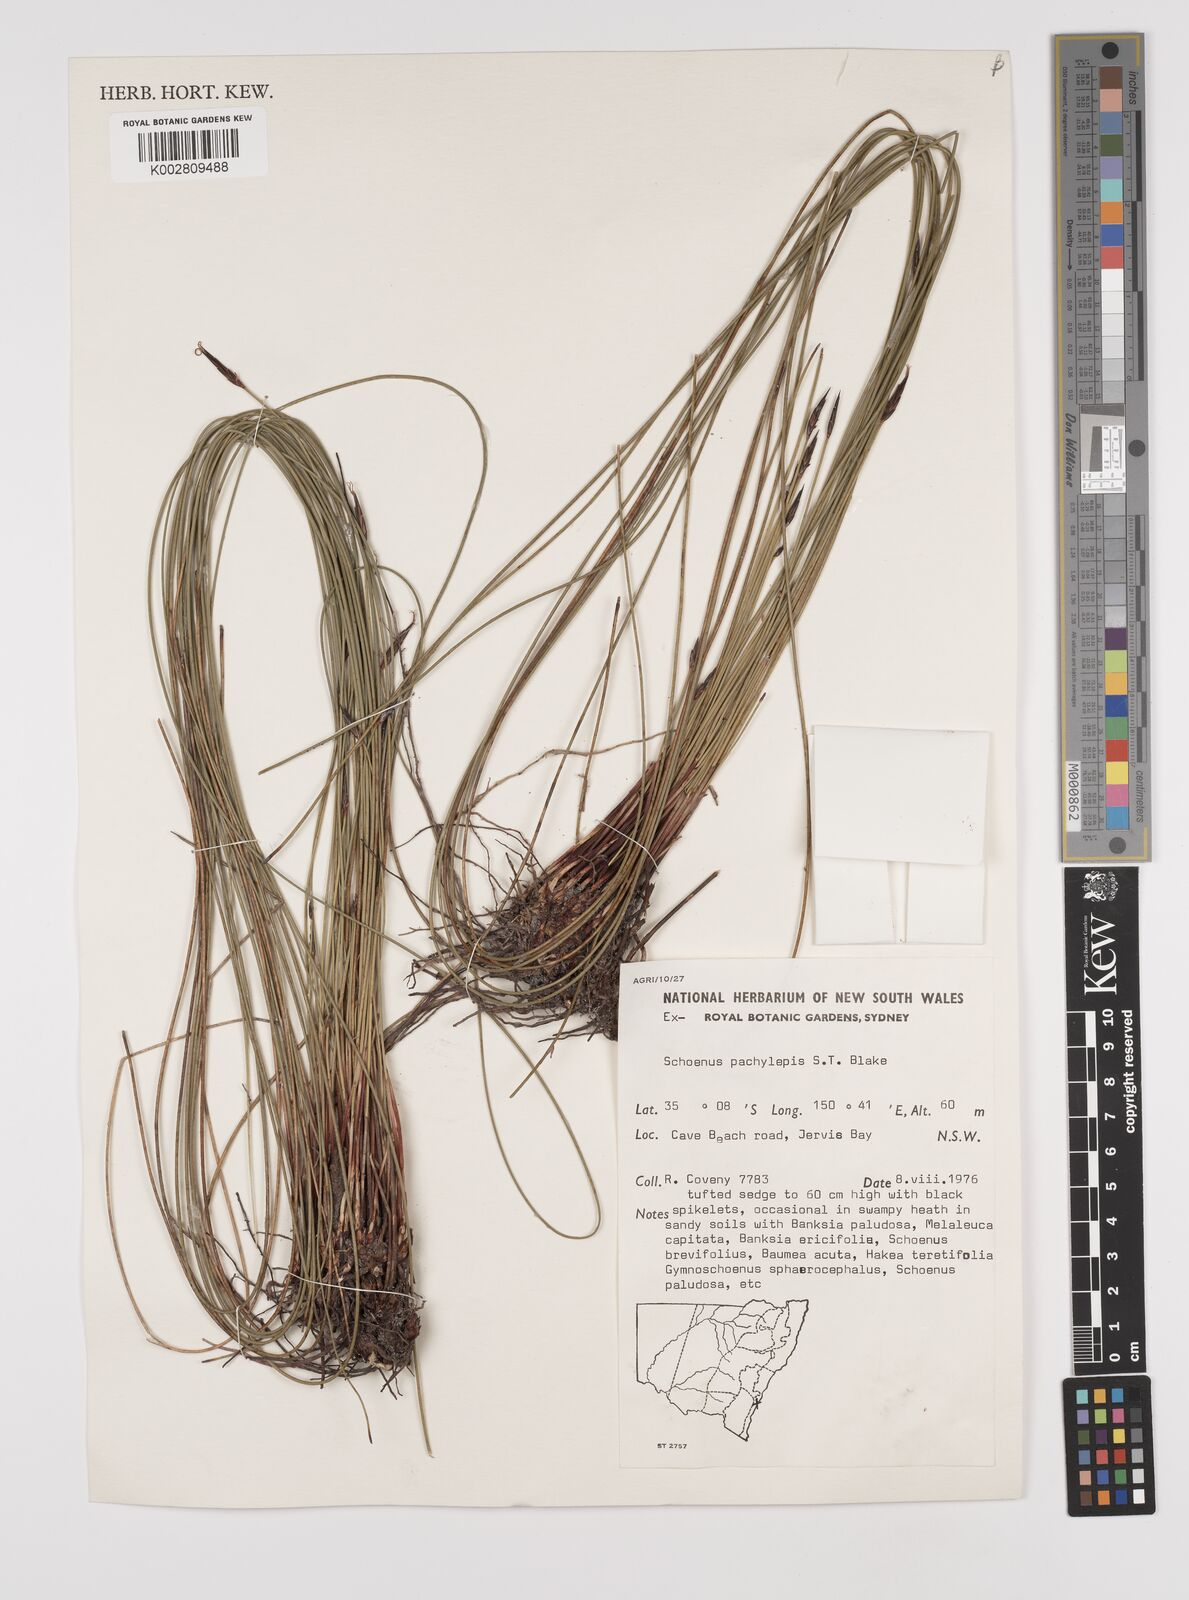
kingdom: Plantae
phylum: Tracheophyta
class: Liliopsida
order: Poales
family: Cyperaceae
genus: Schoenus
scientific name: Schoenus lepidosperma
